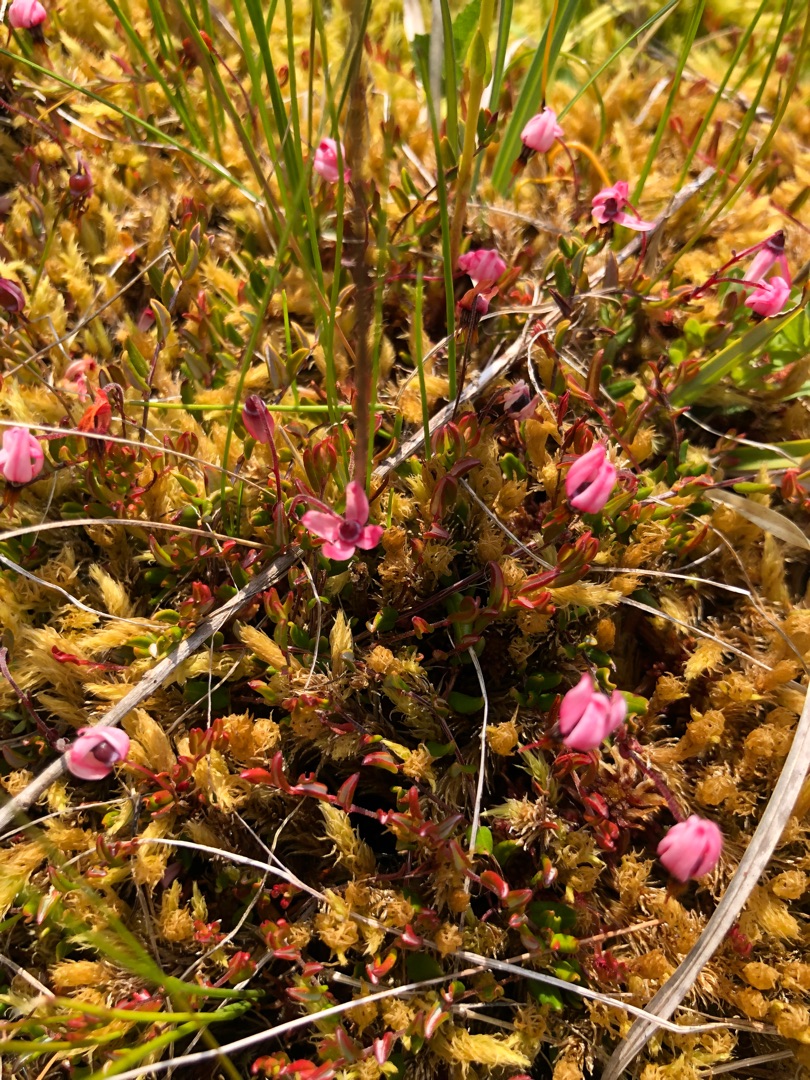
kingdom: Plantae
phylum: Tracheophyta
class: Magnoliopsida
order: Ericales
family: Ericaceae
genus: Vaccinium
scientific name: Vaccinium oxycoccos
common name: Tranebær
